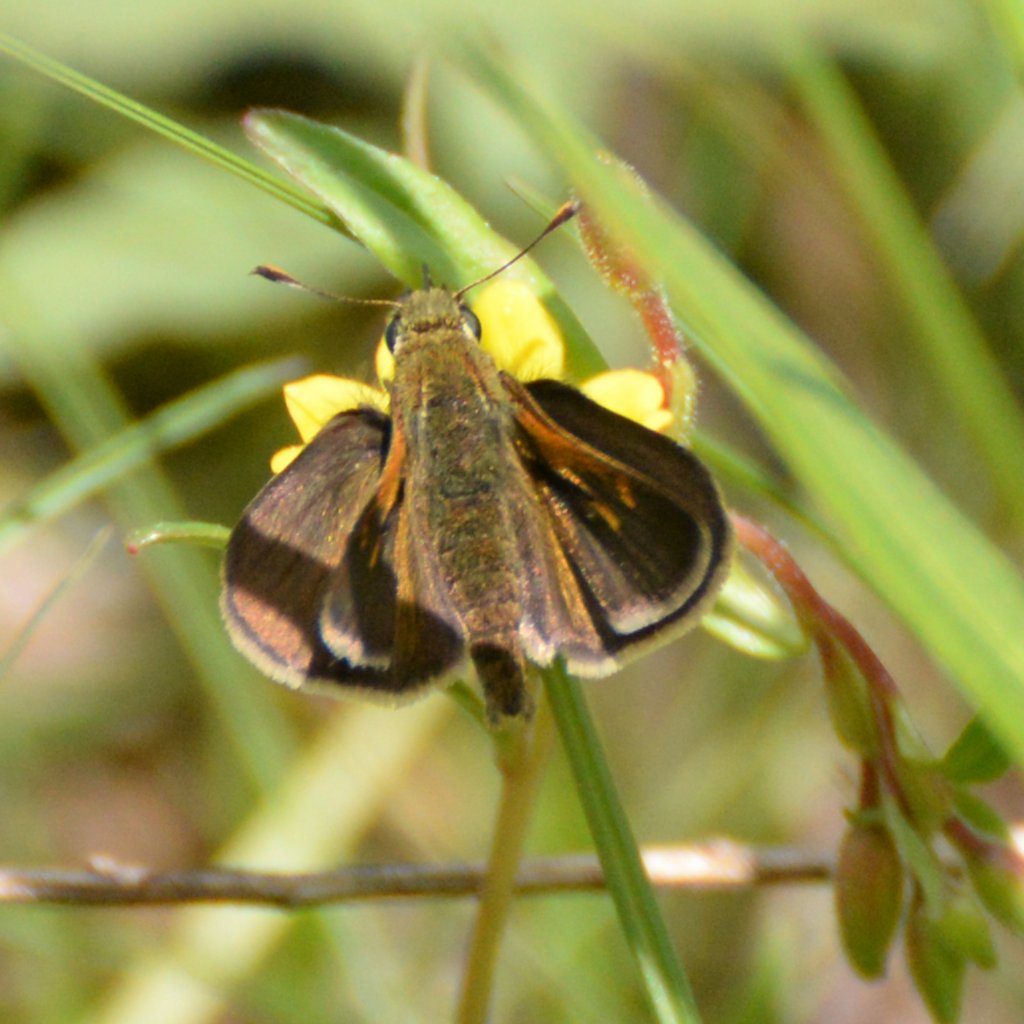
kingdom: Animalia
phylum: Arthropoda
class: Insecta
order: Lepidoptera
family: Hesperiidae
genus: Polites
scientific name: Polites themistocles
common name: Tawny-edged Skipper
